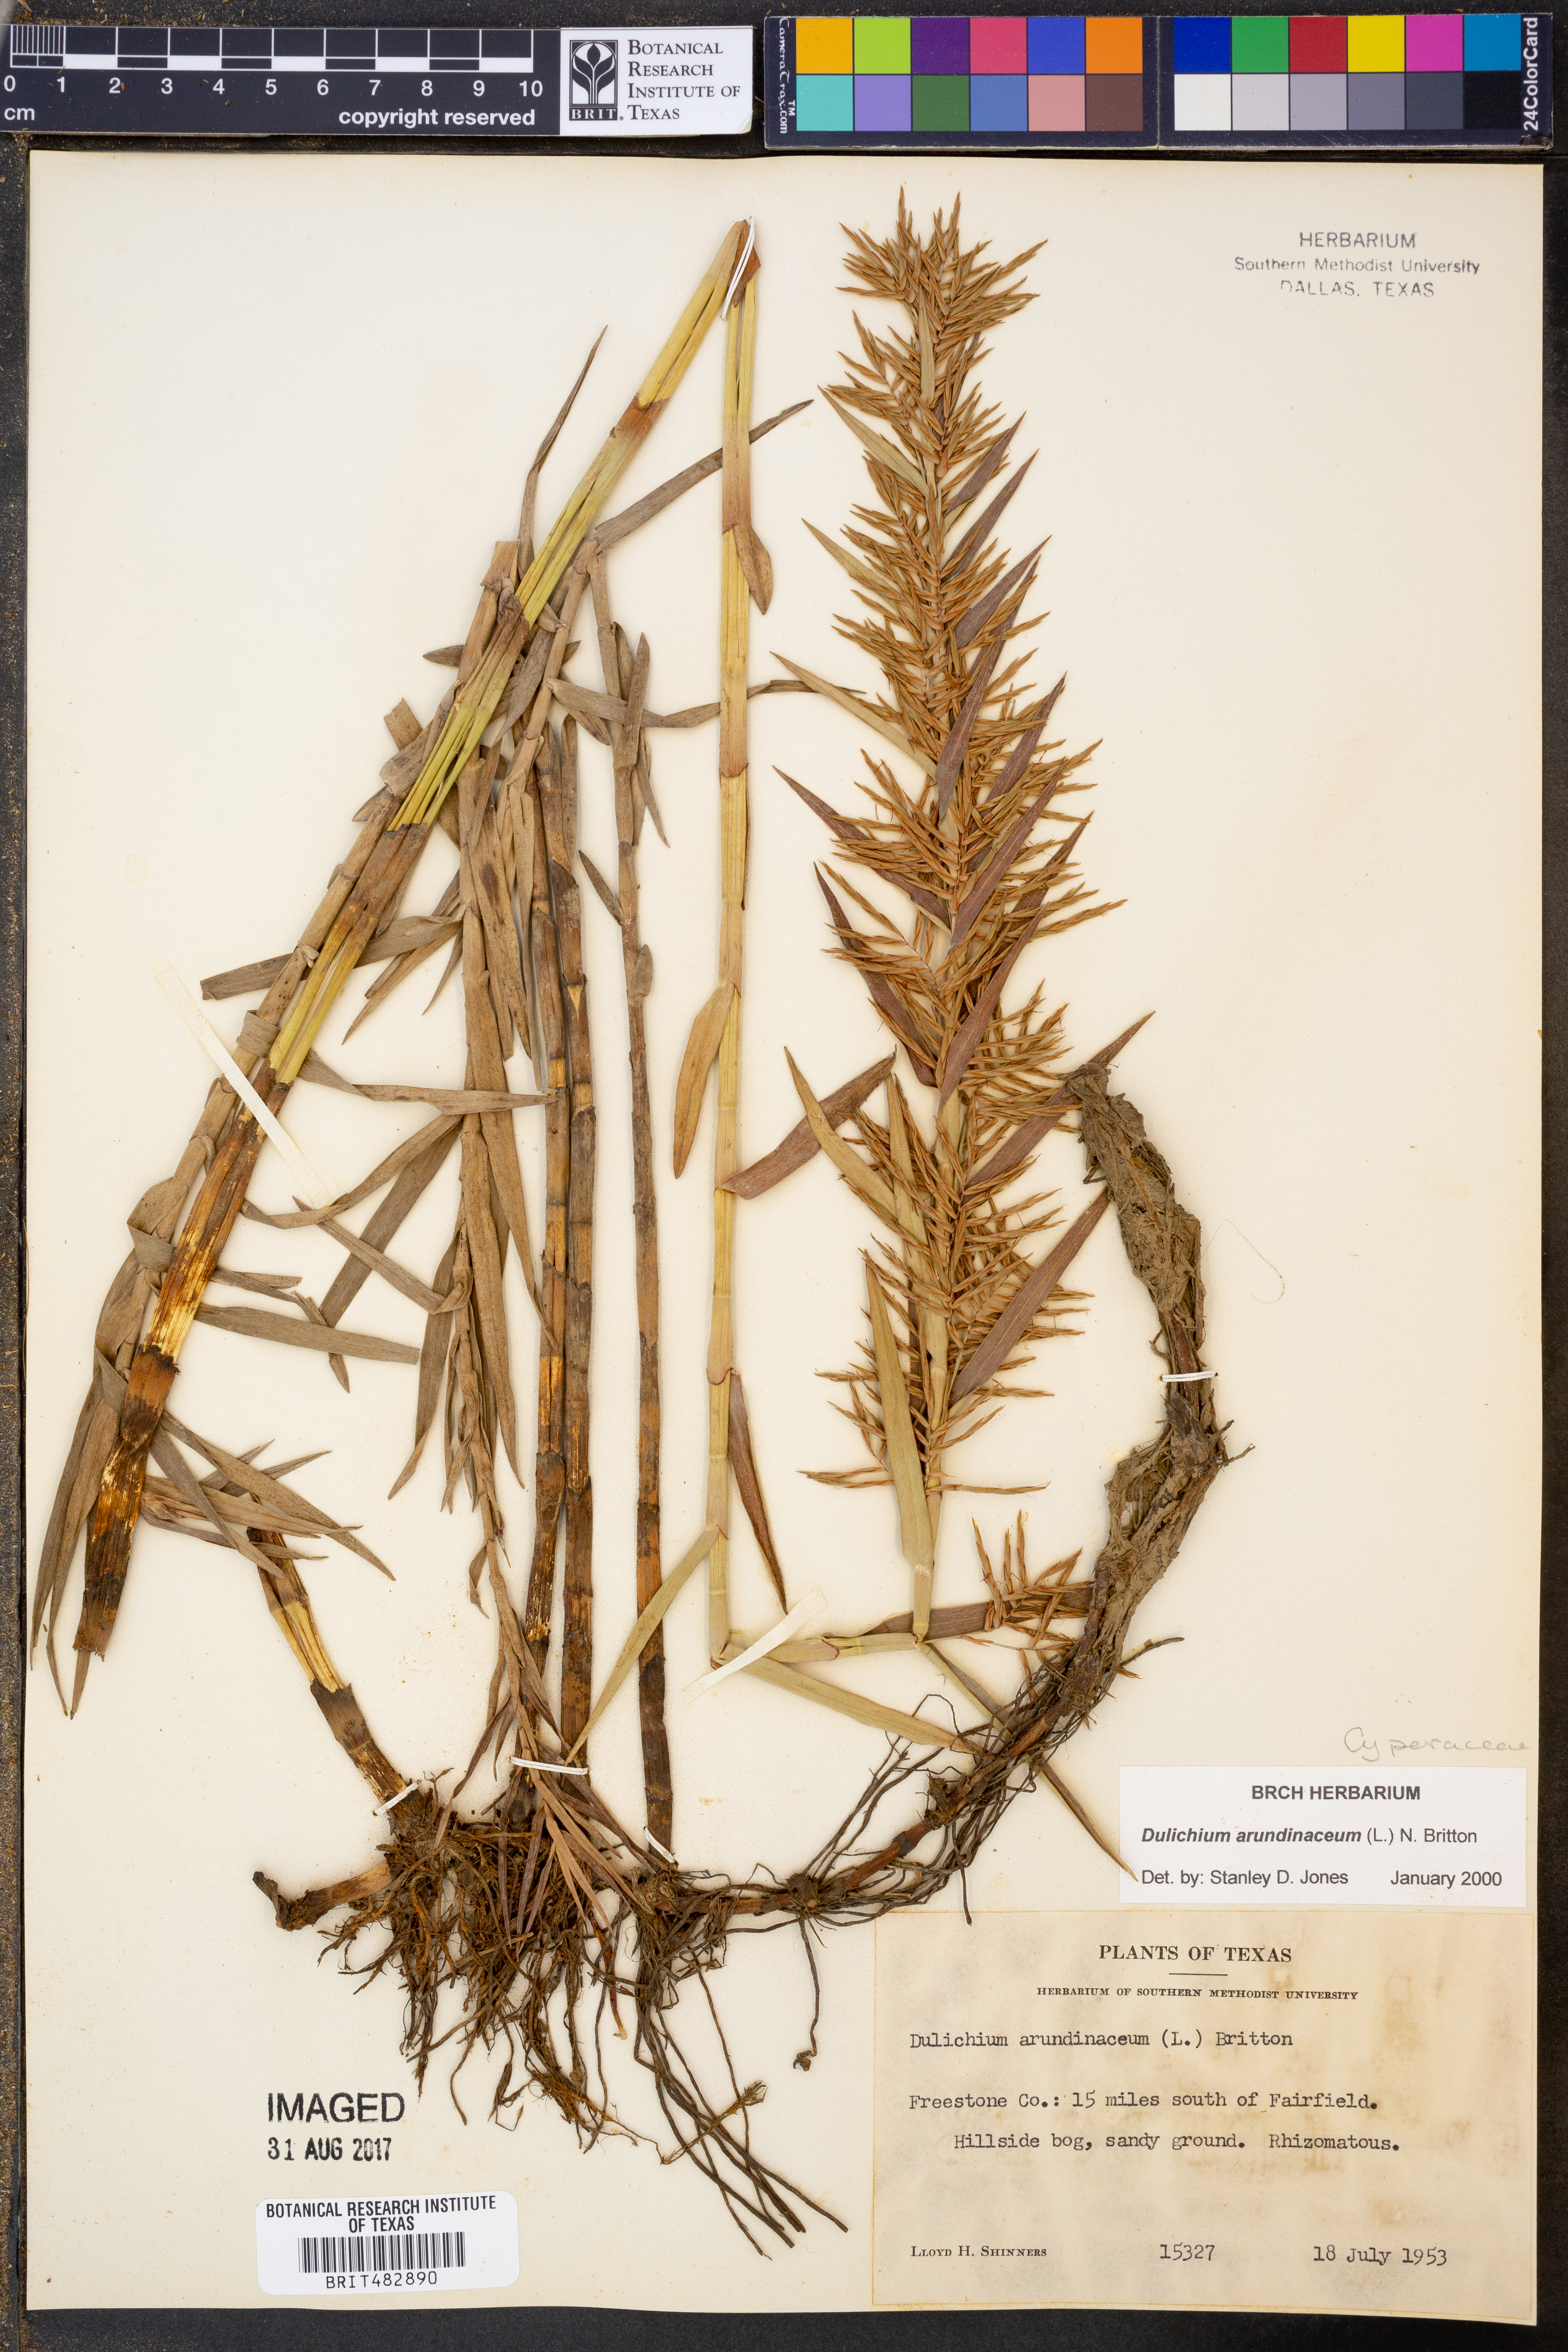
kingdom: Plantae
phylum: Tracheophyta
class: Liliopsida
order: Poales
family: Cyperaceae
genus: Dulichium
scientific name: Dulichium arundinaceum
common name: Three-way sedge
